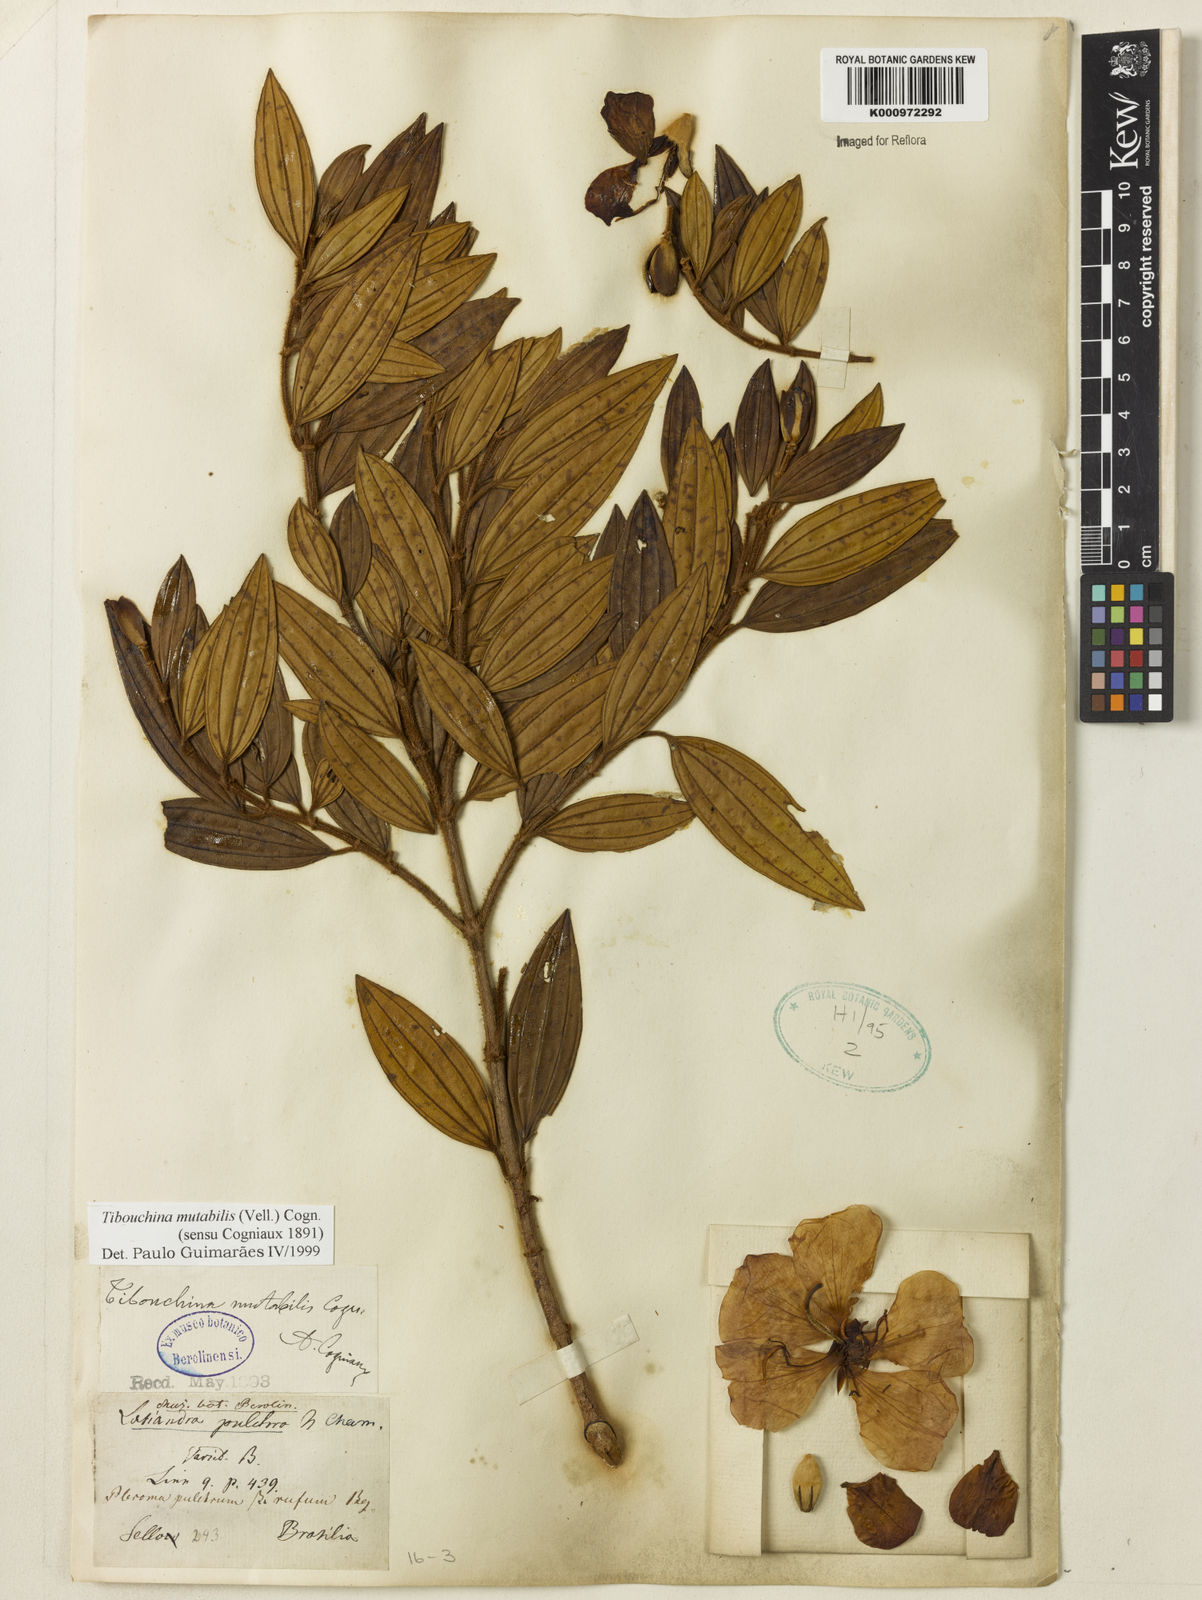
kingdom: Plantae
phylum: Tracheophyta
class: Magnoliopsida
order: Myrtales
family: Melastomataceae
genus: Pleroma
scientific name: Pleroma mutabile
